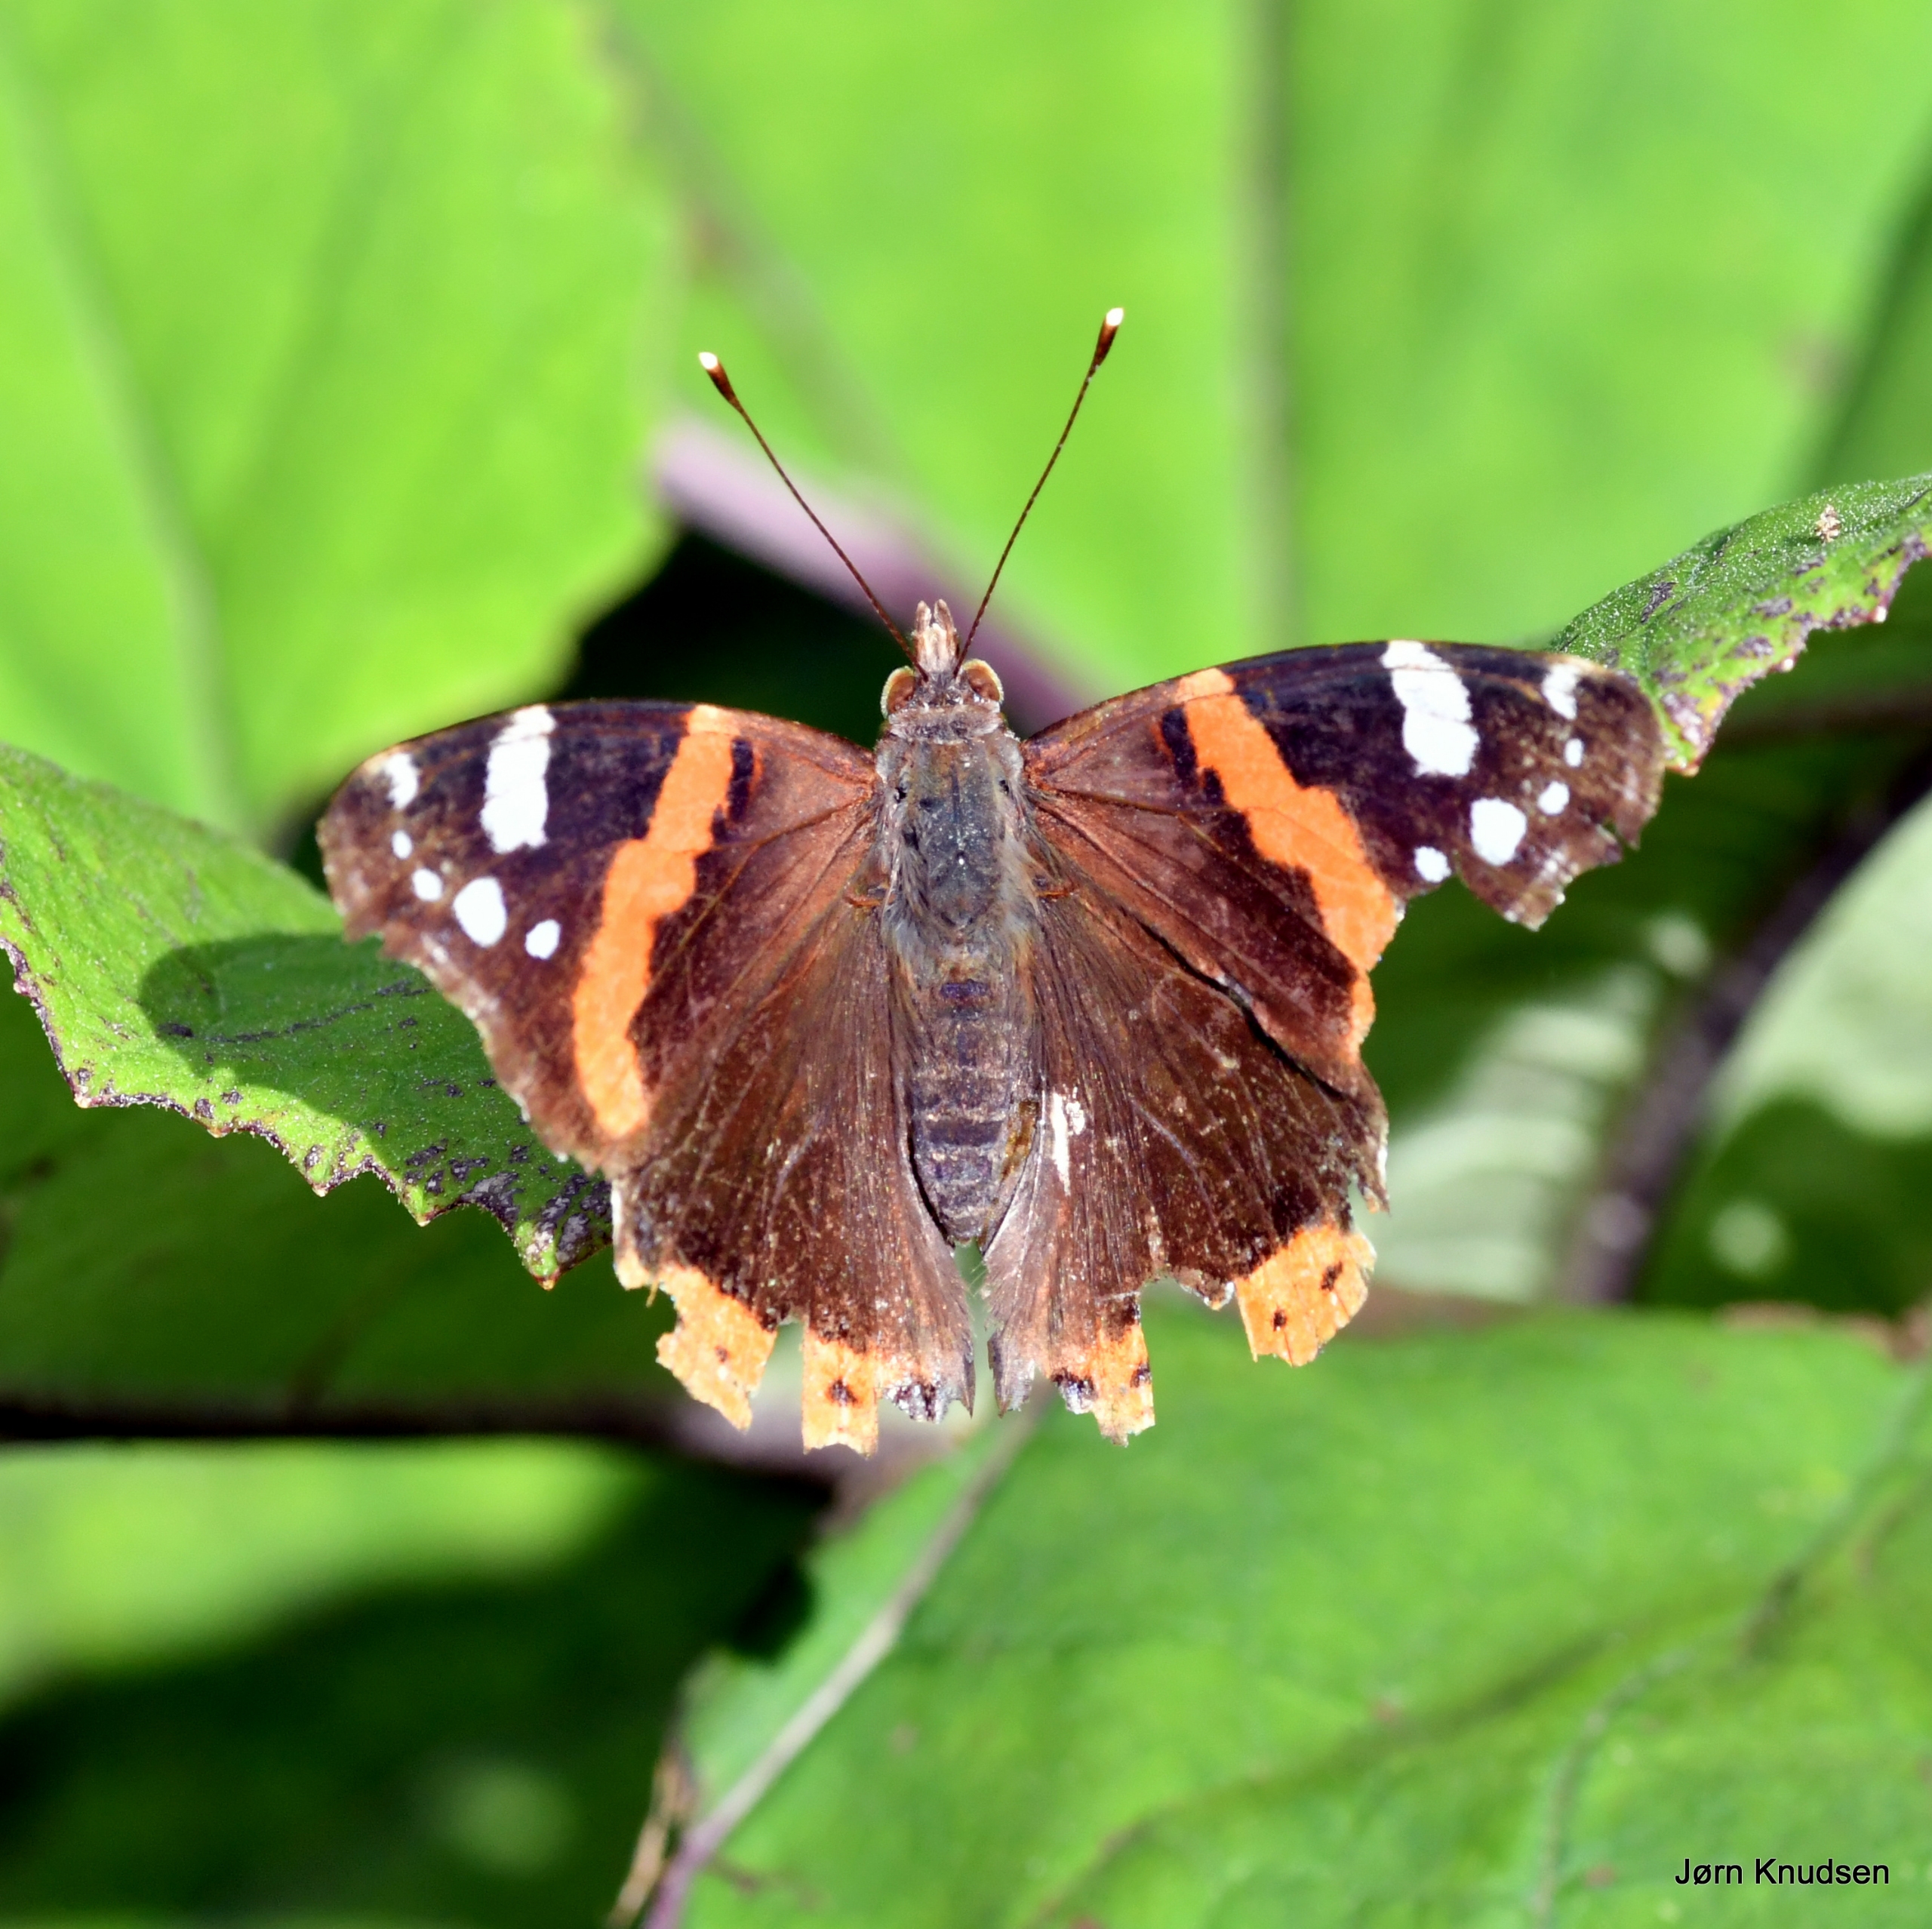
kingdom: Animalia
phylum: Arthropoda
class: Insecta
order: Lepidoptera
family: Nymphalidae
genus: Vanessa
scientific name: Vanessa atalanta
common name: Admiral
